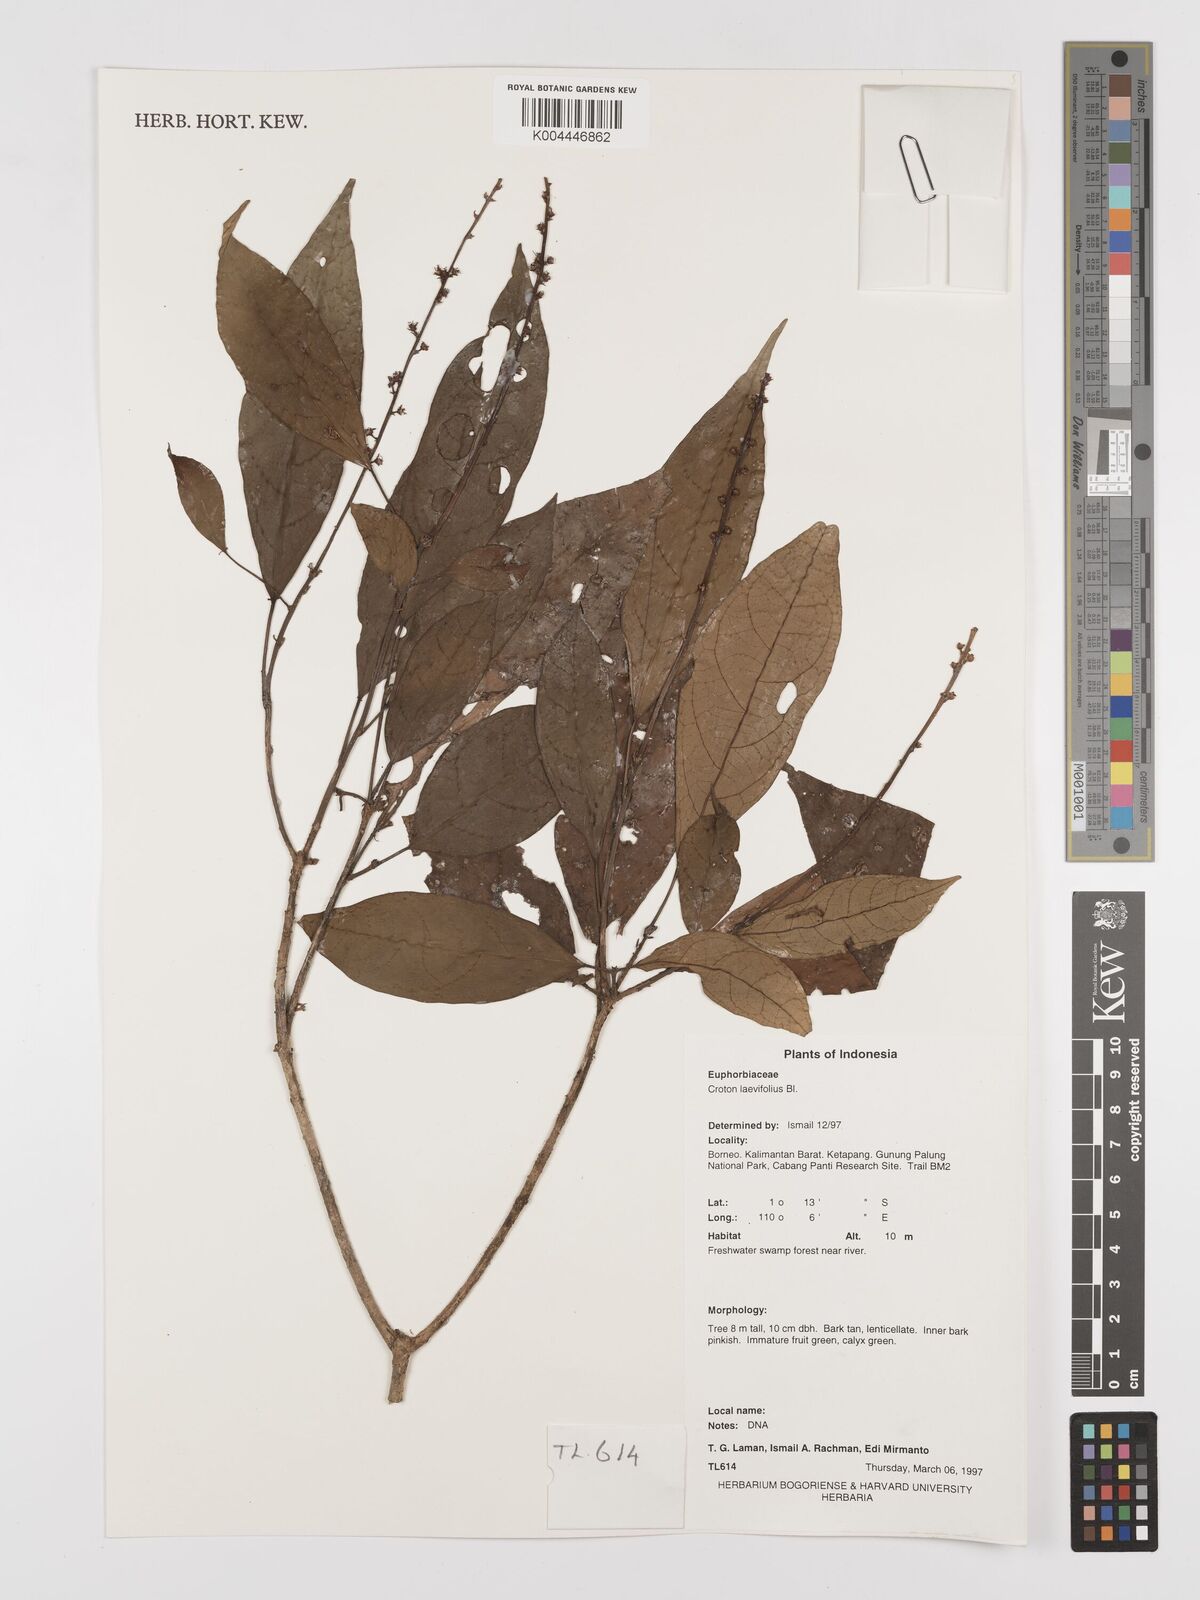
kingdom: Plantae
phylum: Tracheophyta
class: Magnoliopsida
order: Malpighiales
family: Euphorbiaceae
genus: Croton
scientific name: Croton oblongus
